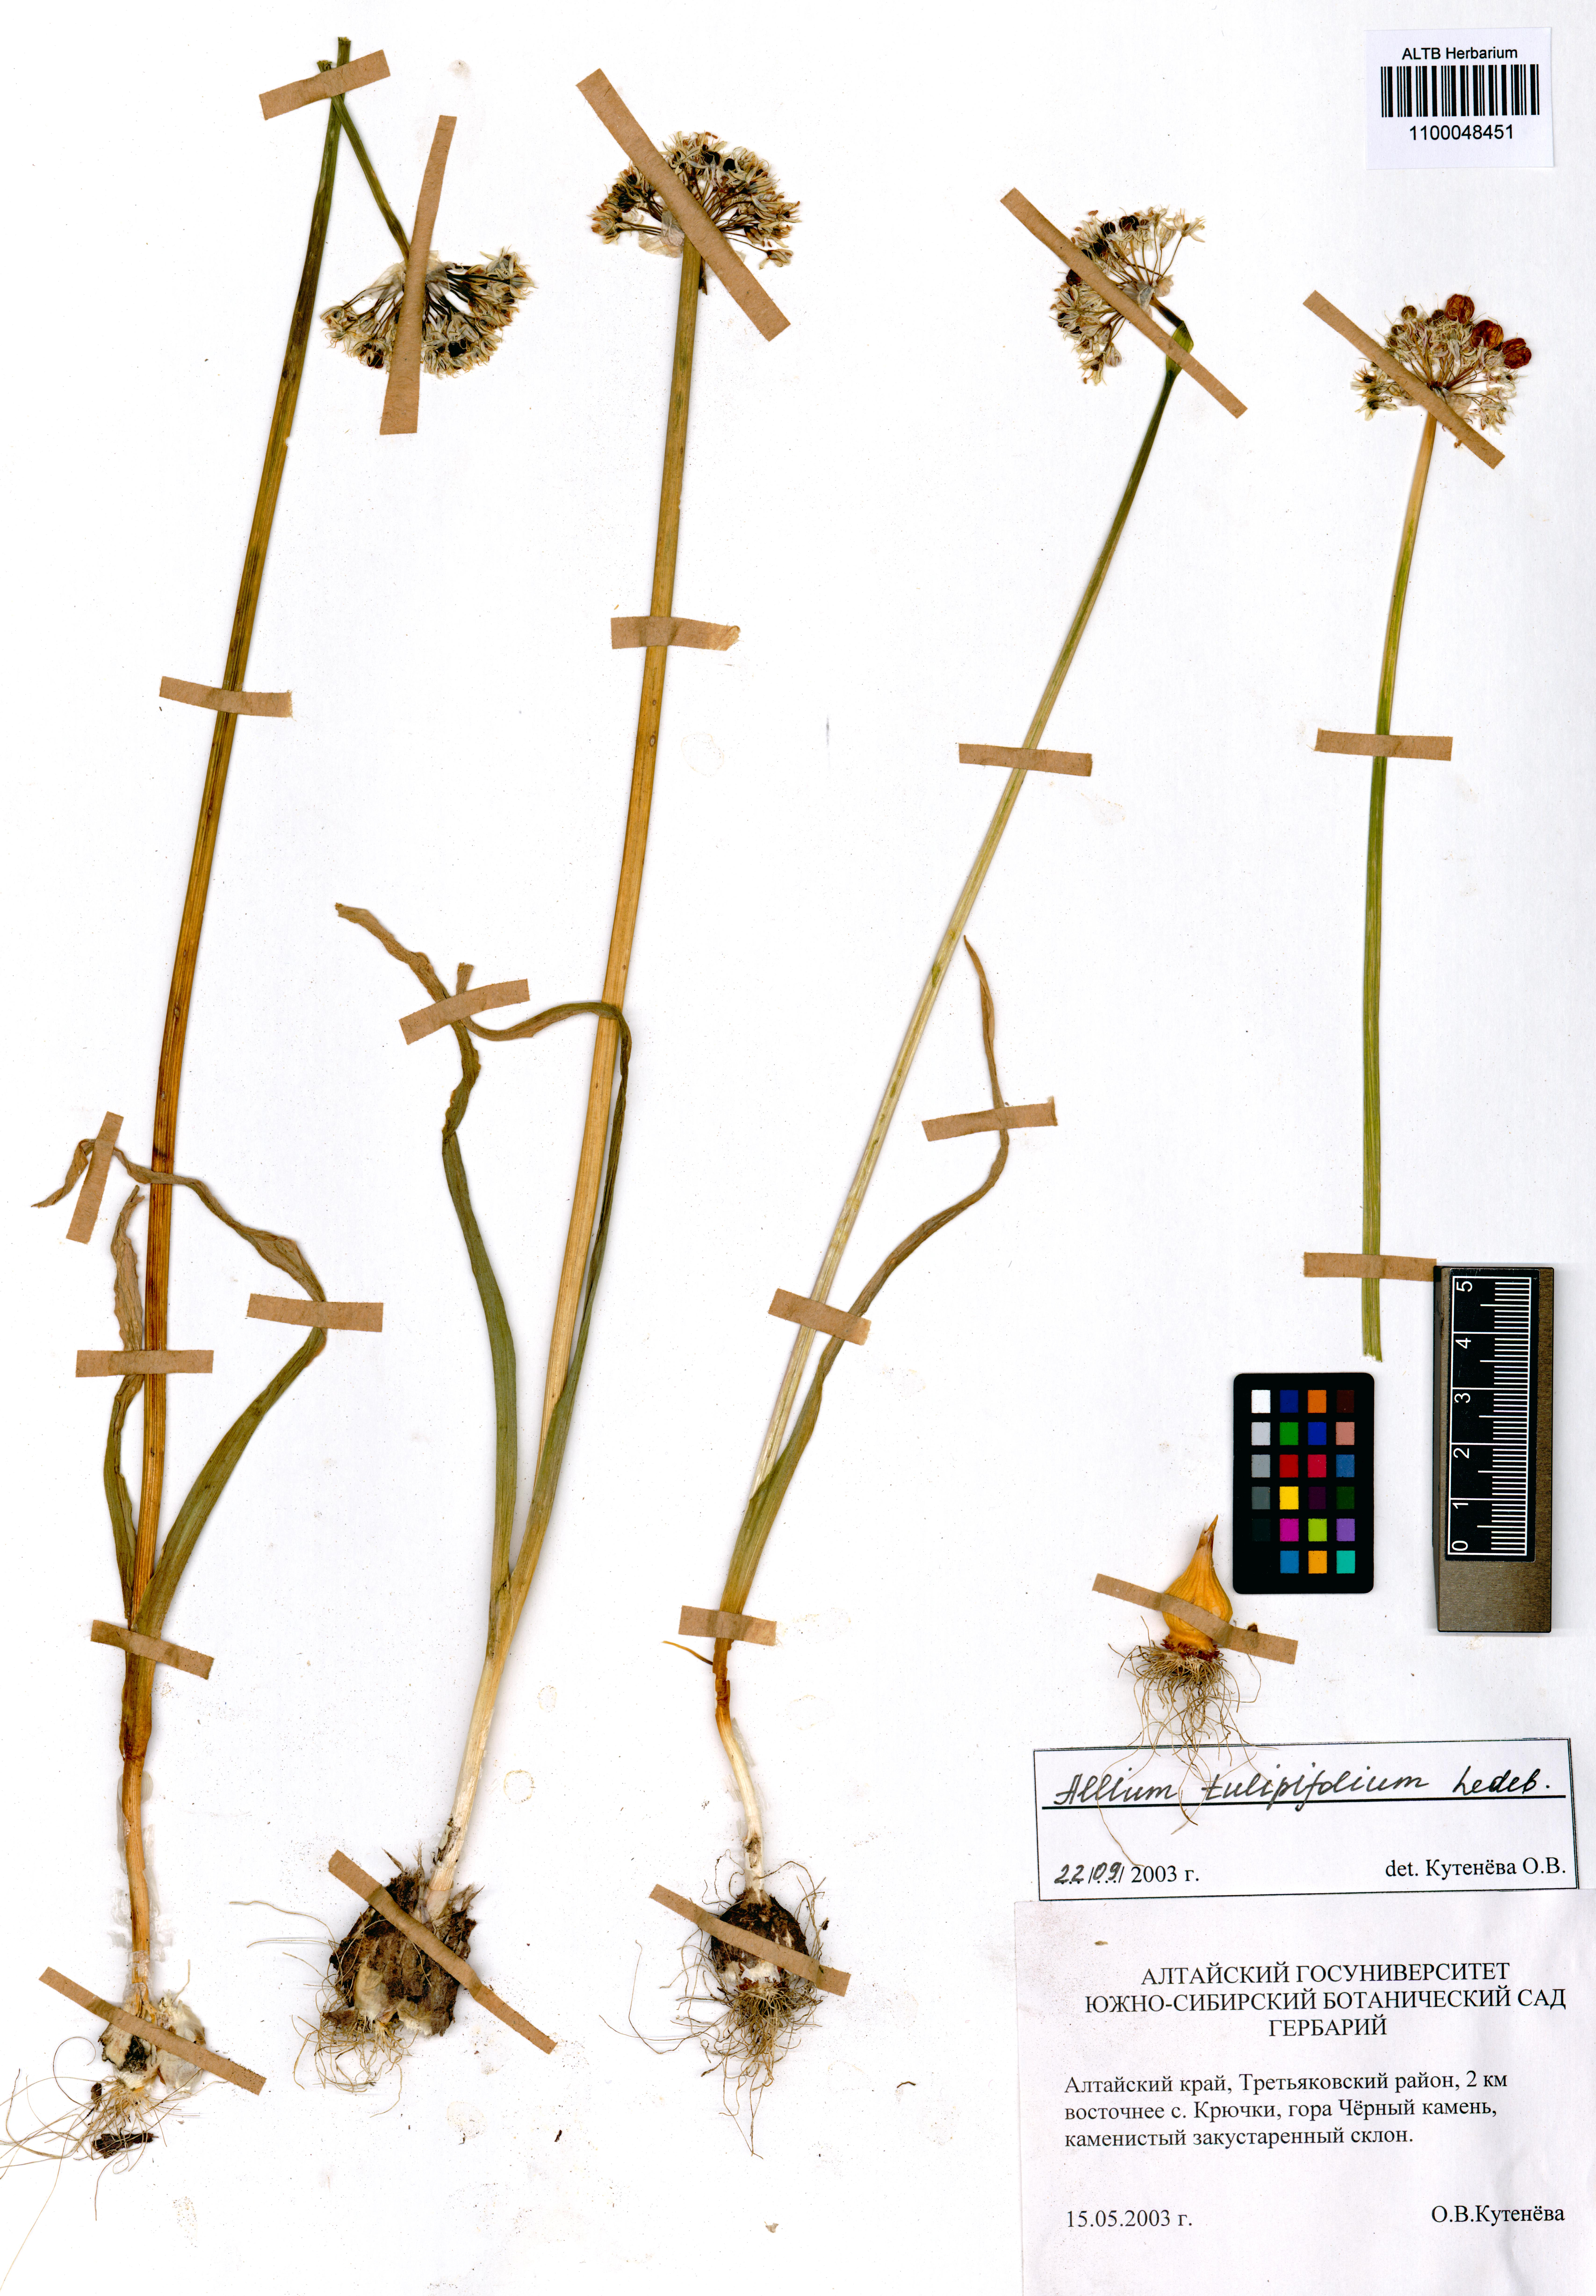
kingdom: Plantae
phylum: Tracheophyta
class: Liliopsida
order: Asparagales
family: Amaryllidaceae
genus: Allium
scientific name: Allium tulipifolium
